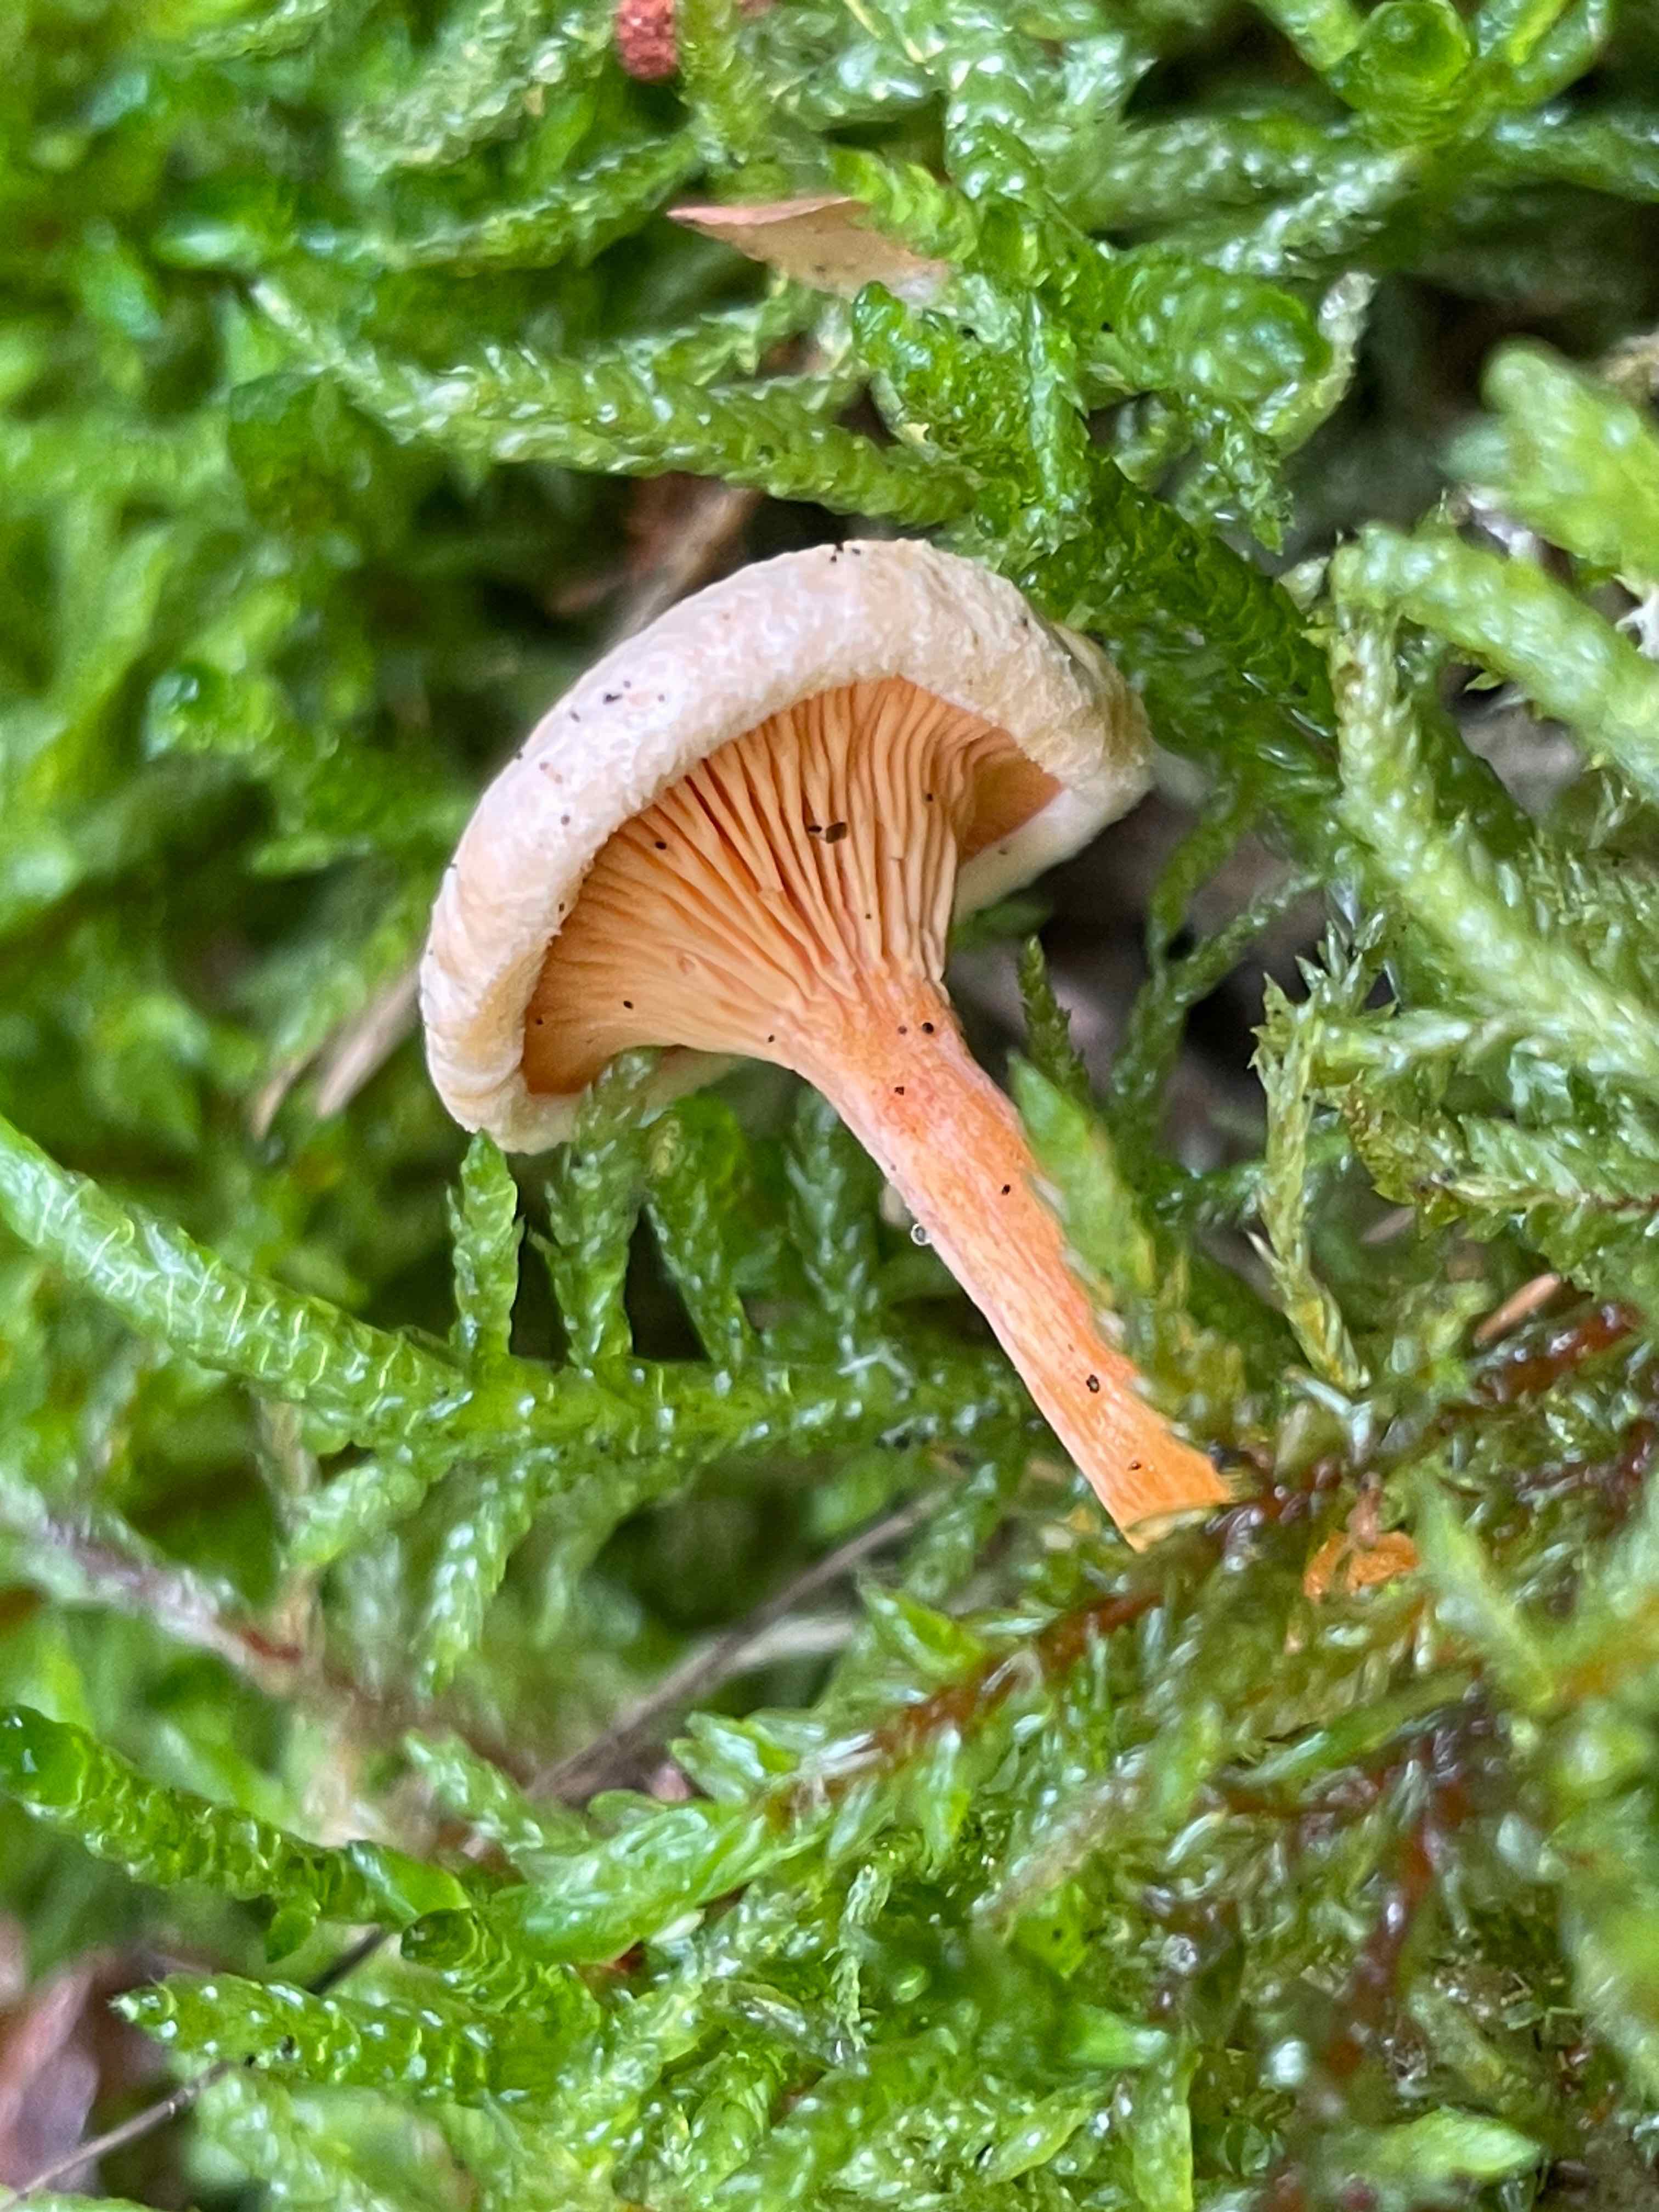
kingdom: Fungi
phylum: Basidiomycota
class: Agaricomycetes
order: Boletales
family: Hygrophoropsidaceae
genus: Hygrophoropsis
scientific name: Hygrophoropsis aurantiaca
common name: almindelig orangekantarel
